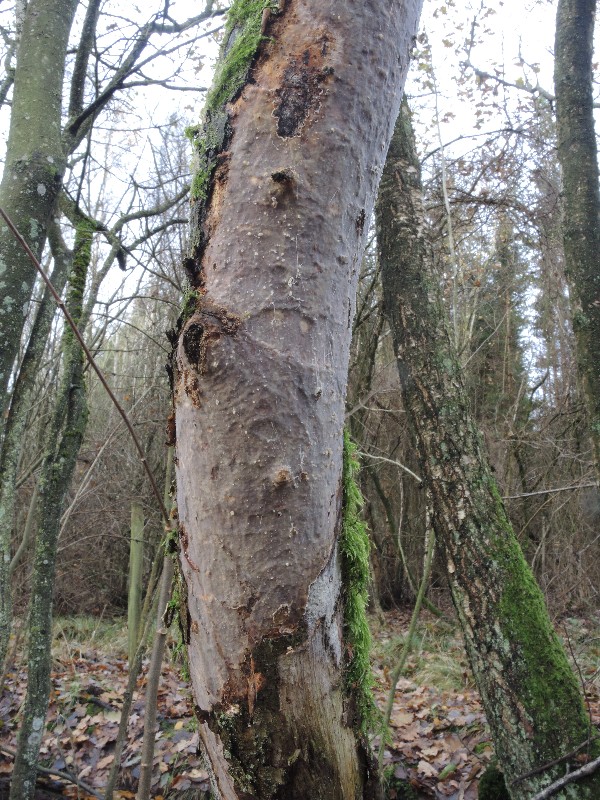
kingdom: Fungi
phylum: Basidiomycota
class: Agaricomycetes
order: Corticiales
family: Vuilleminiaceae
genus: Vuilleminia
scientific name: Vuilleminia comedens
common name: almindelig barksprænger
